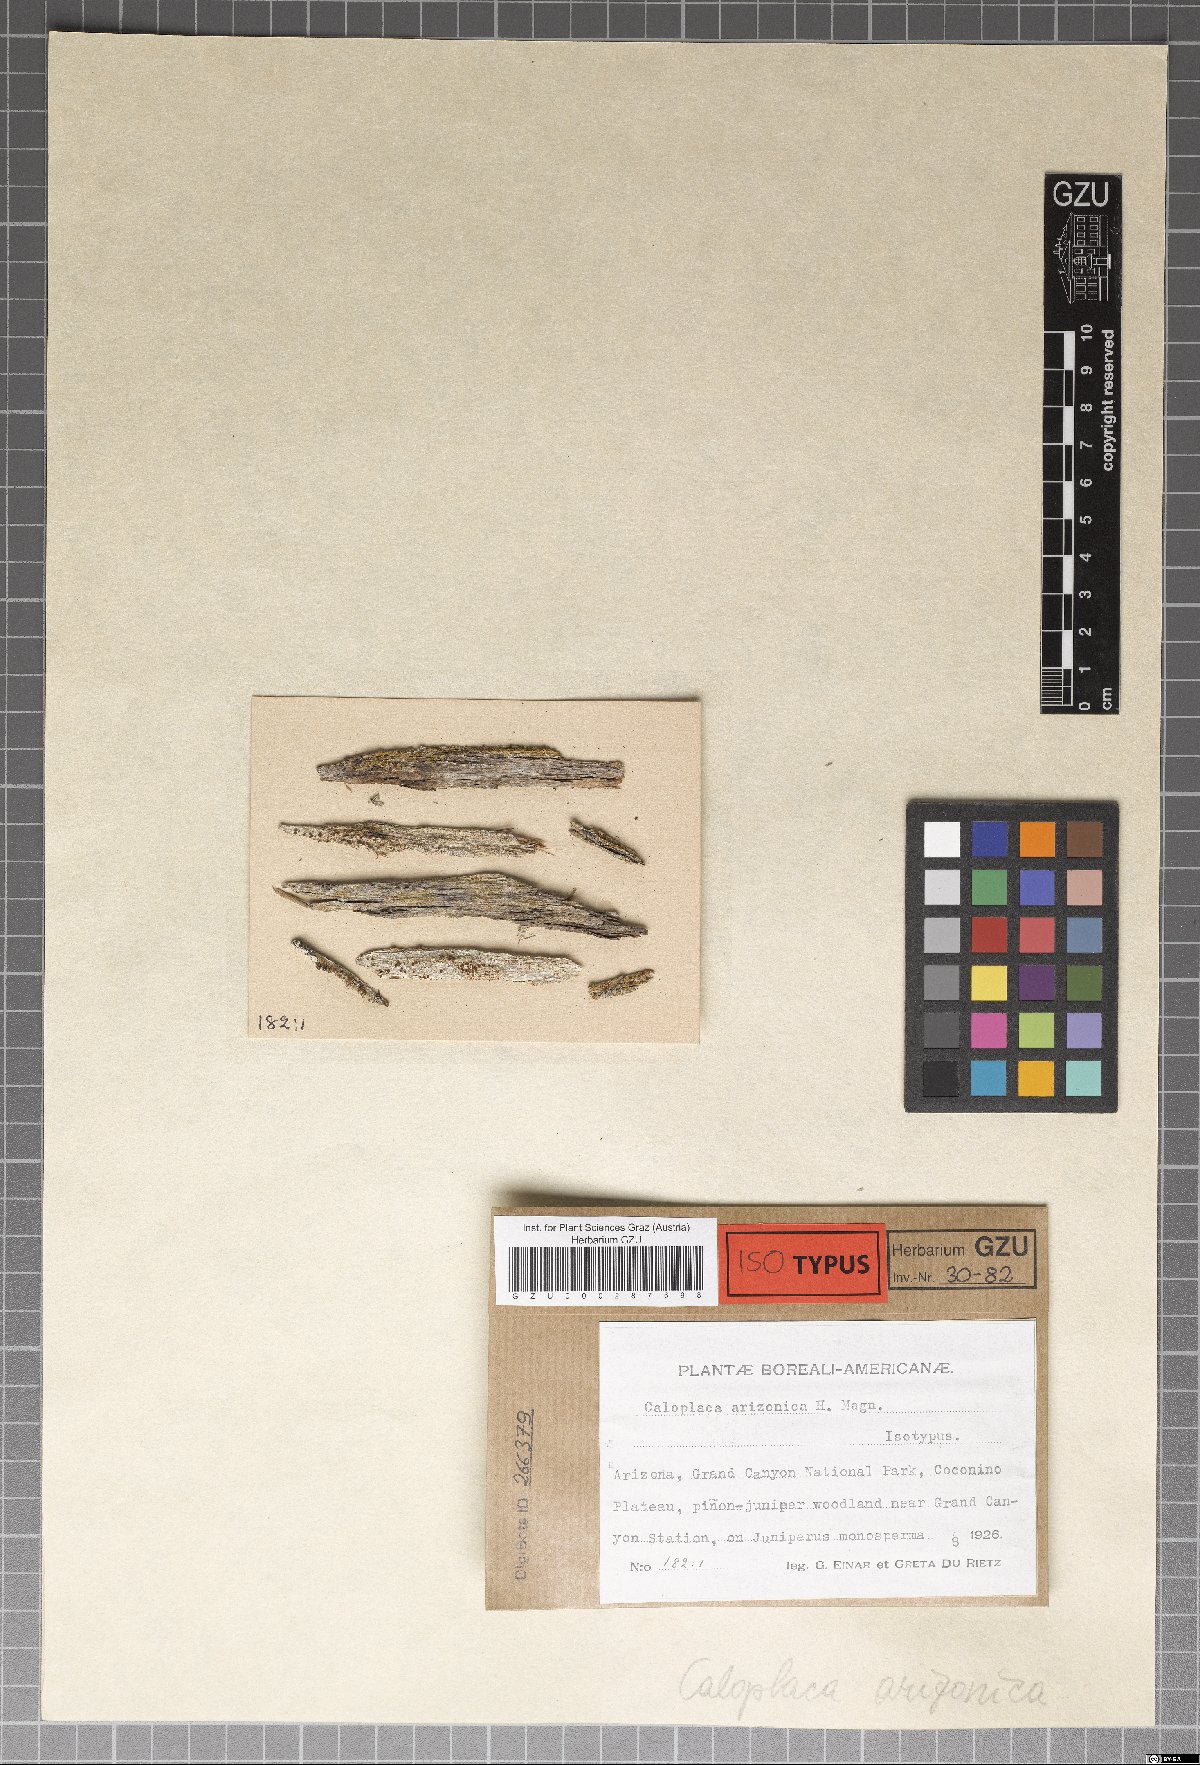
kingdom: Fungi
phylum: Ascomycota
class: Lecanoromycetes
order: Teloschistales
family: Teloschistaceae
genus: Opeltia
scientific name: Opeltia arizonica
